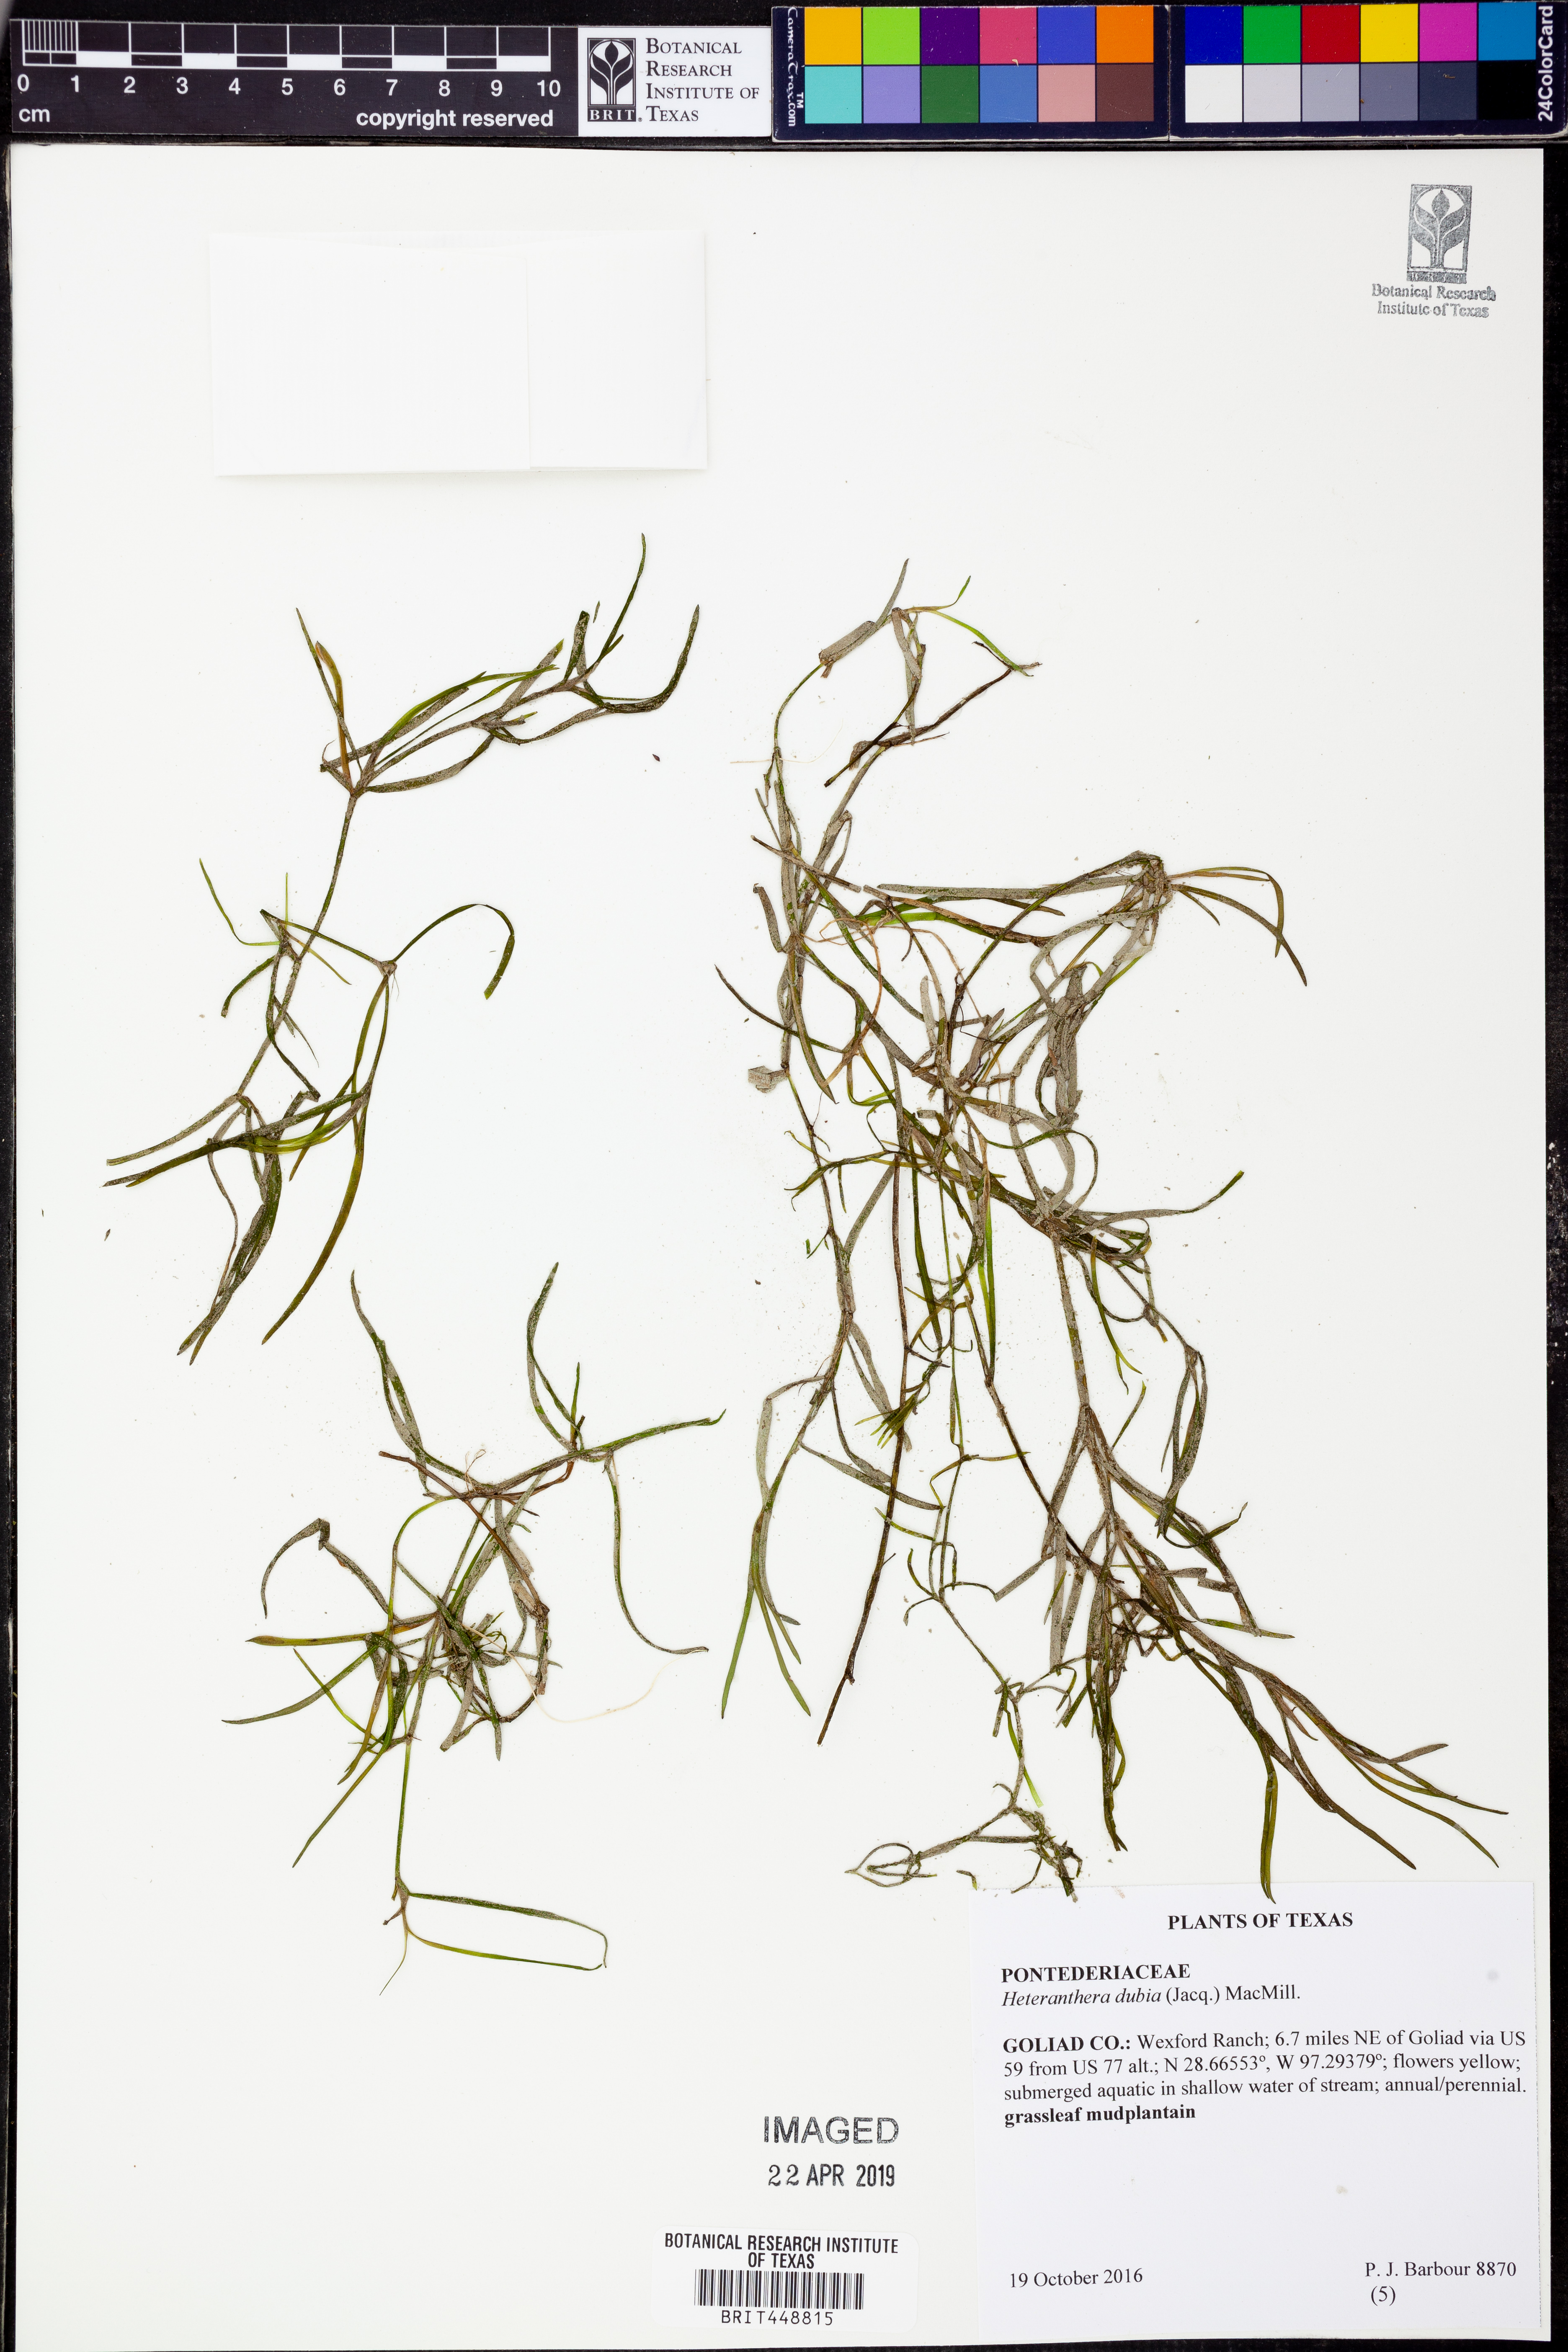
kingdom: Plantae
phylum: Tracheophyta
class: Liliopsida
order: Commelinales
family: Pontederiaceae
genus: Heteranthera
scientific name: Heteranthera dubia
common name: Grass-leaved mud plantain
